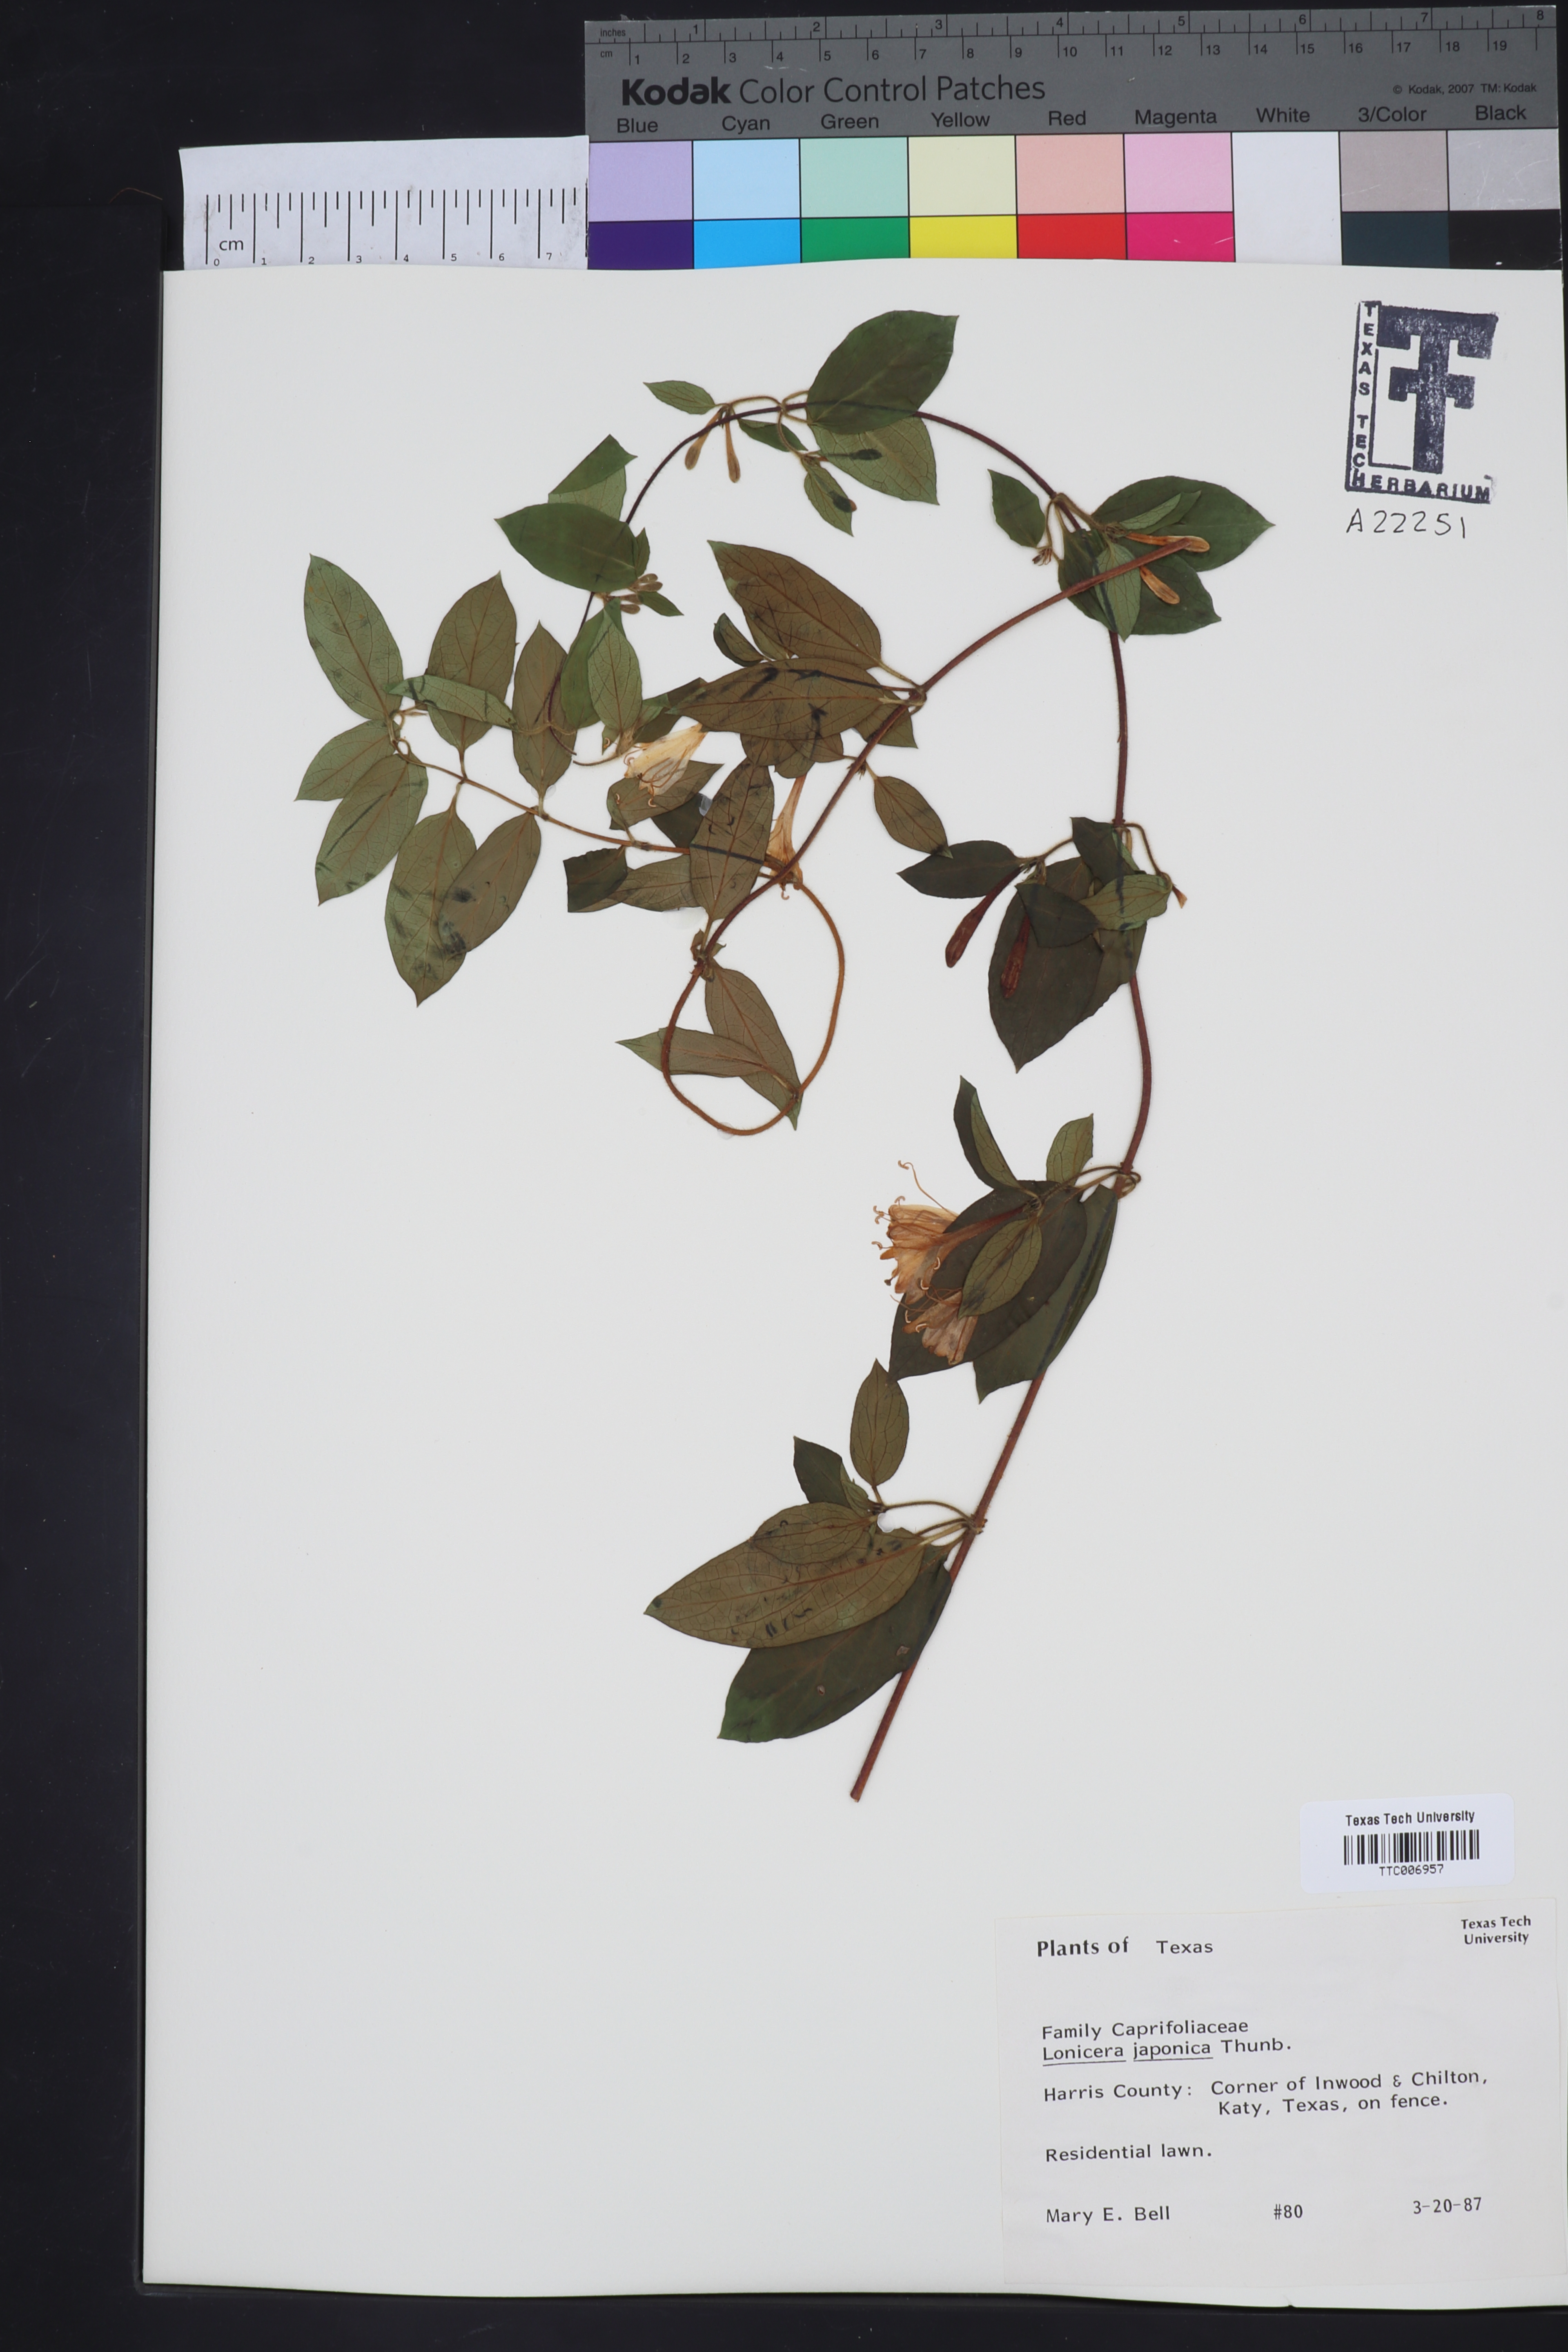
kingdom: Plantae
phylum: Tracheophyta
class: Magnoliopsida
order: Dipsacales
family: Caprifoliaceae
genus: Lonicera
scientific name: Lonicera japonica
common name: Japanese honeysuckle
